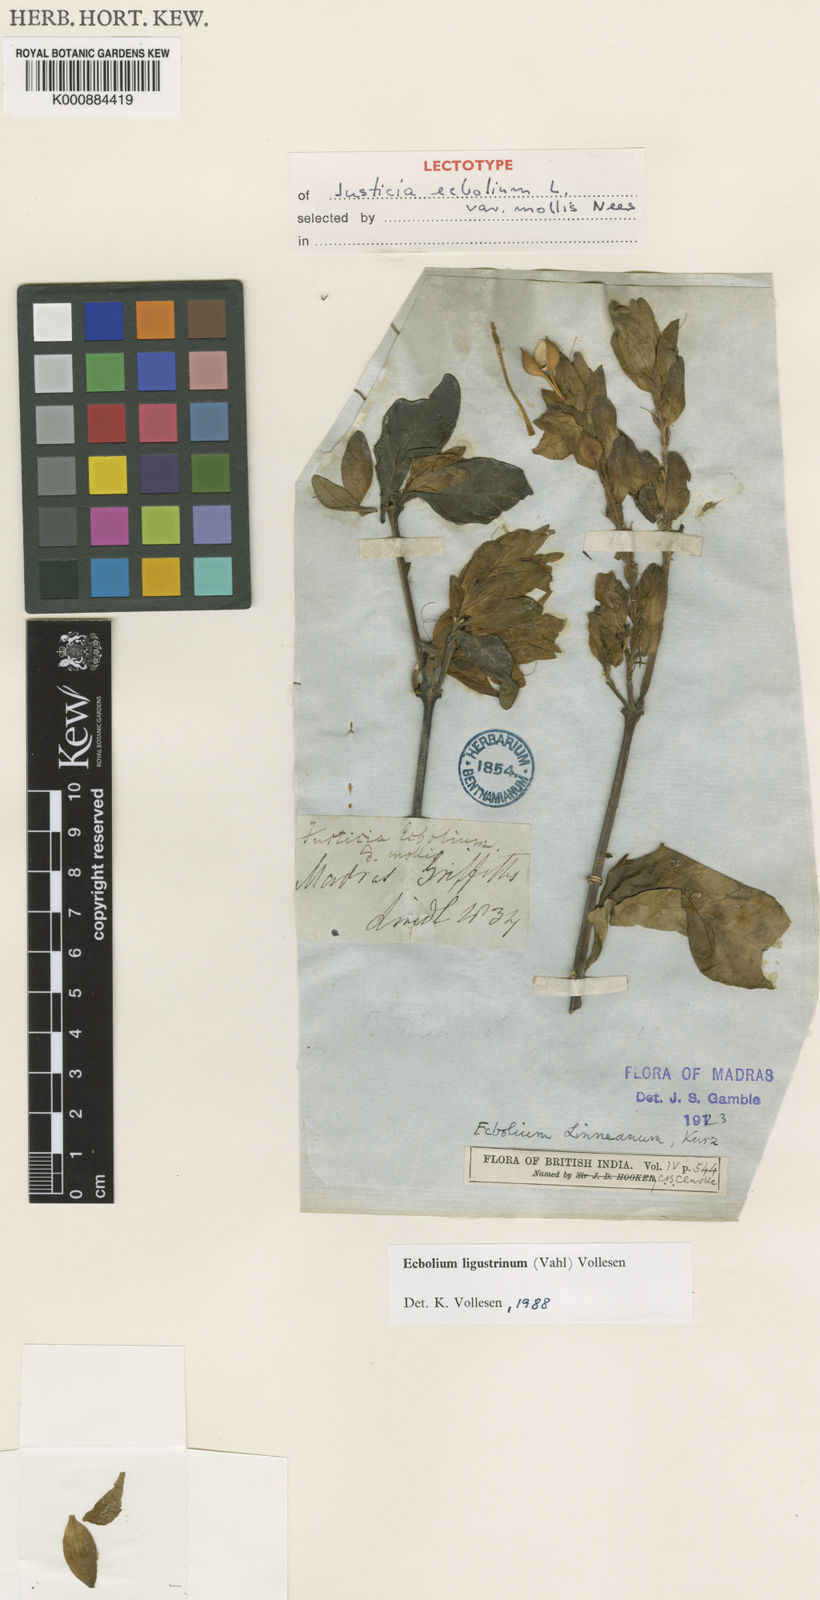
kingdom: Plantae
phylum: Tracheophyta
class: Magnoliopsida
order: Lamiales
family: Acanthaceae
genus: Ecbolium
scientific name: Ecbolium ligustrinum
